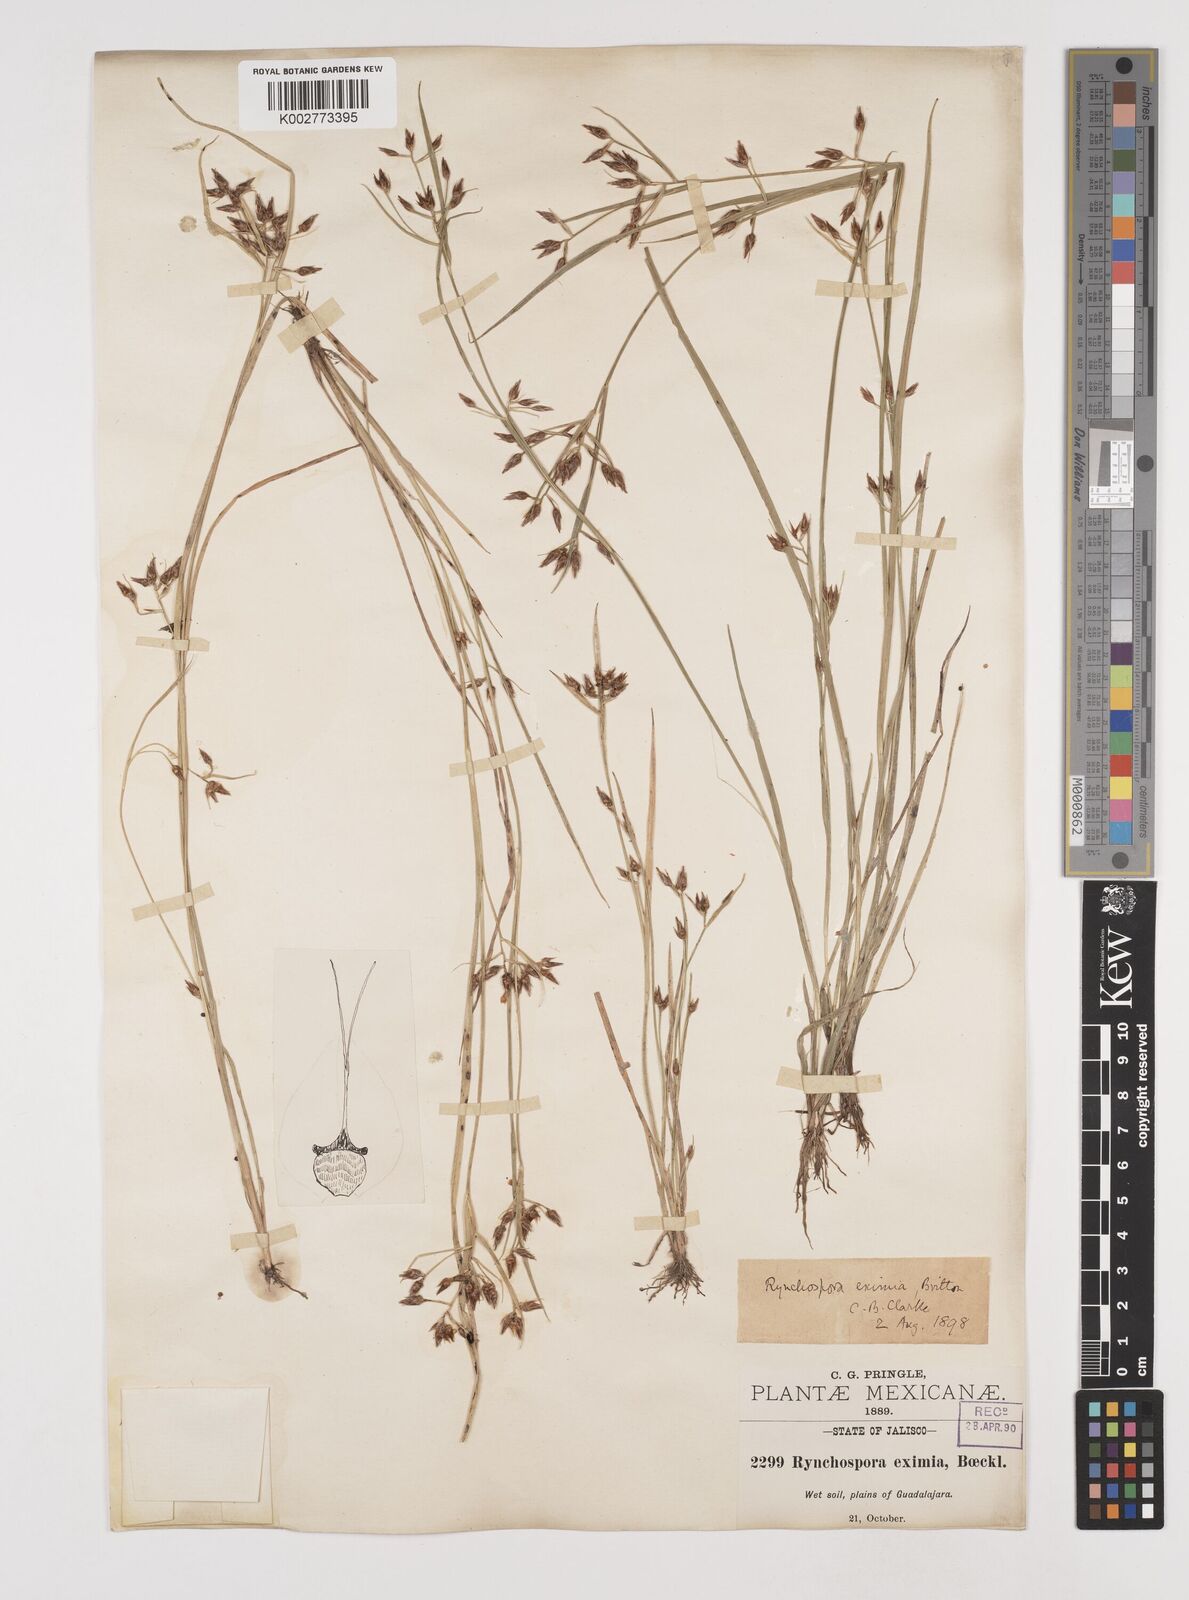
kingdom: Plantae
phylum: Tracheophyta
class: Liliopsida
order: Poales
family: Cyperaceae
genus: Rhynchospora
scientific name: Rhynchospora eximia
